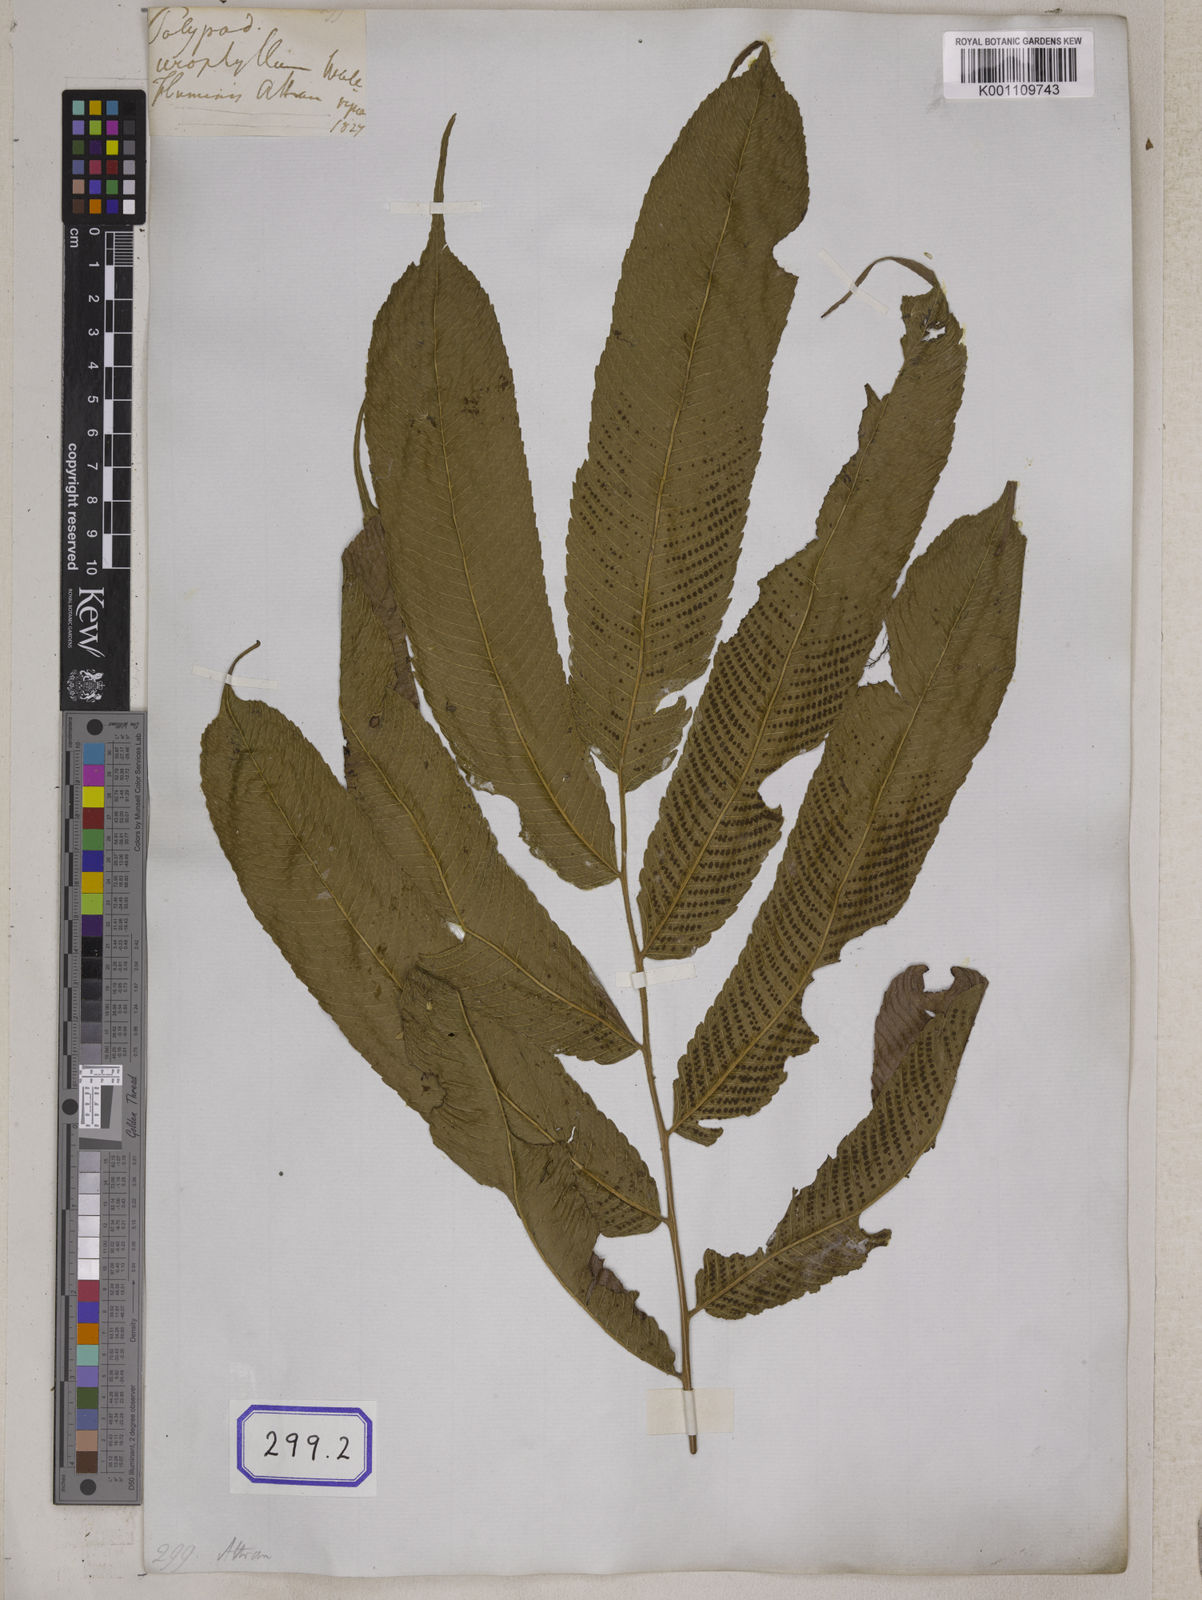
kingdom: Plantae
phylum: Tracheophyta
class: Polypodiopsida
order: Polypodiales
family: Thelypteridaceae
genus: Menisciopsis
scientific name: Menisciopsis penangiana
